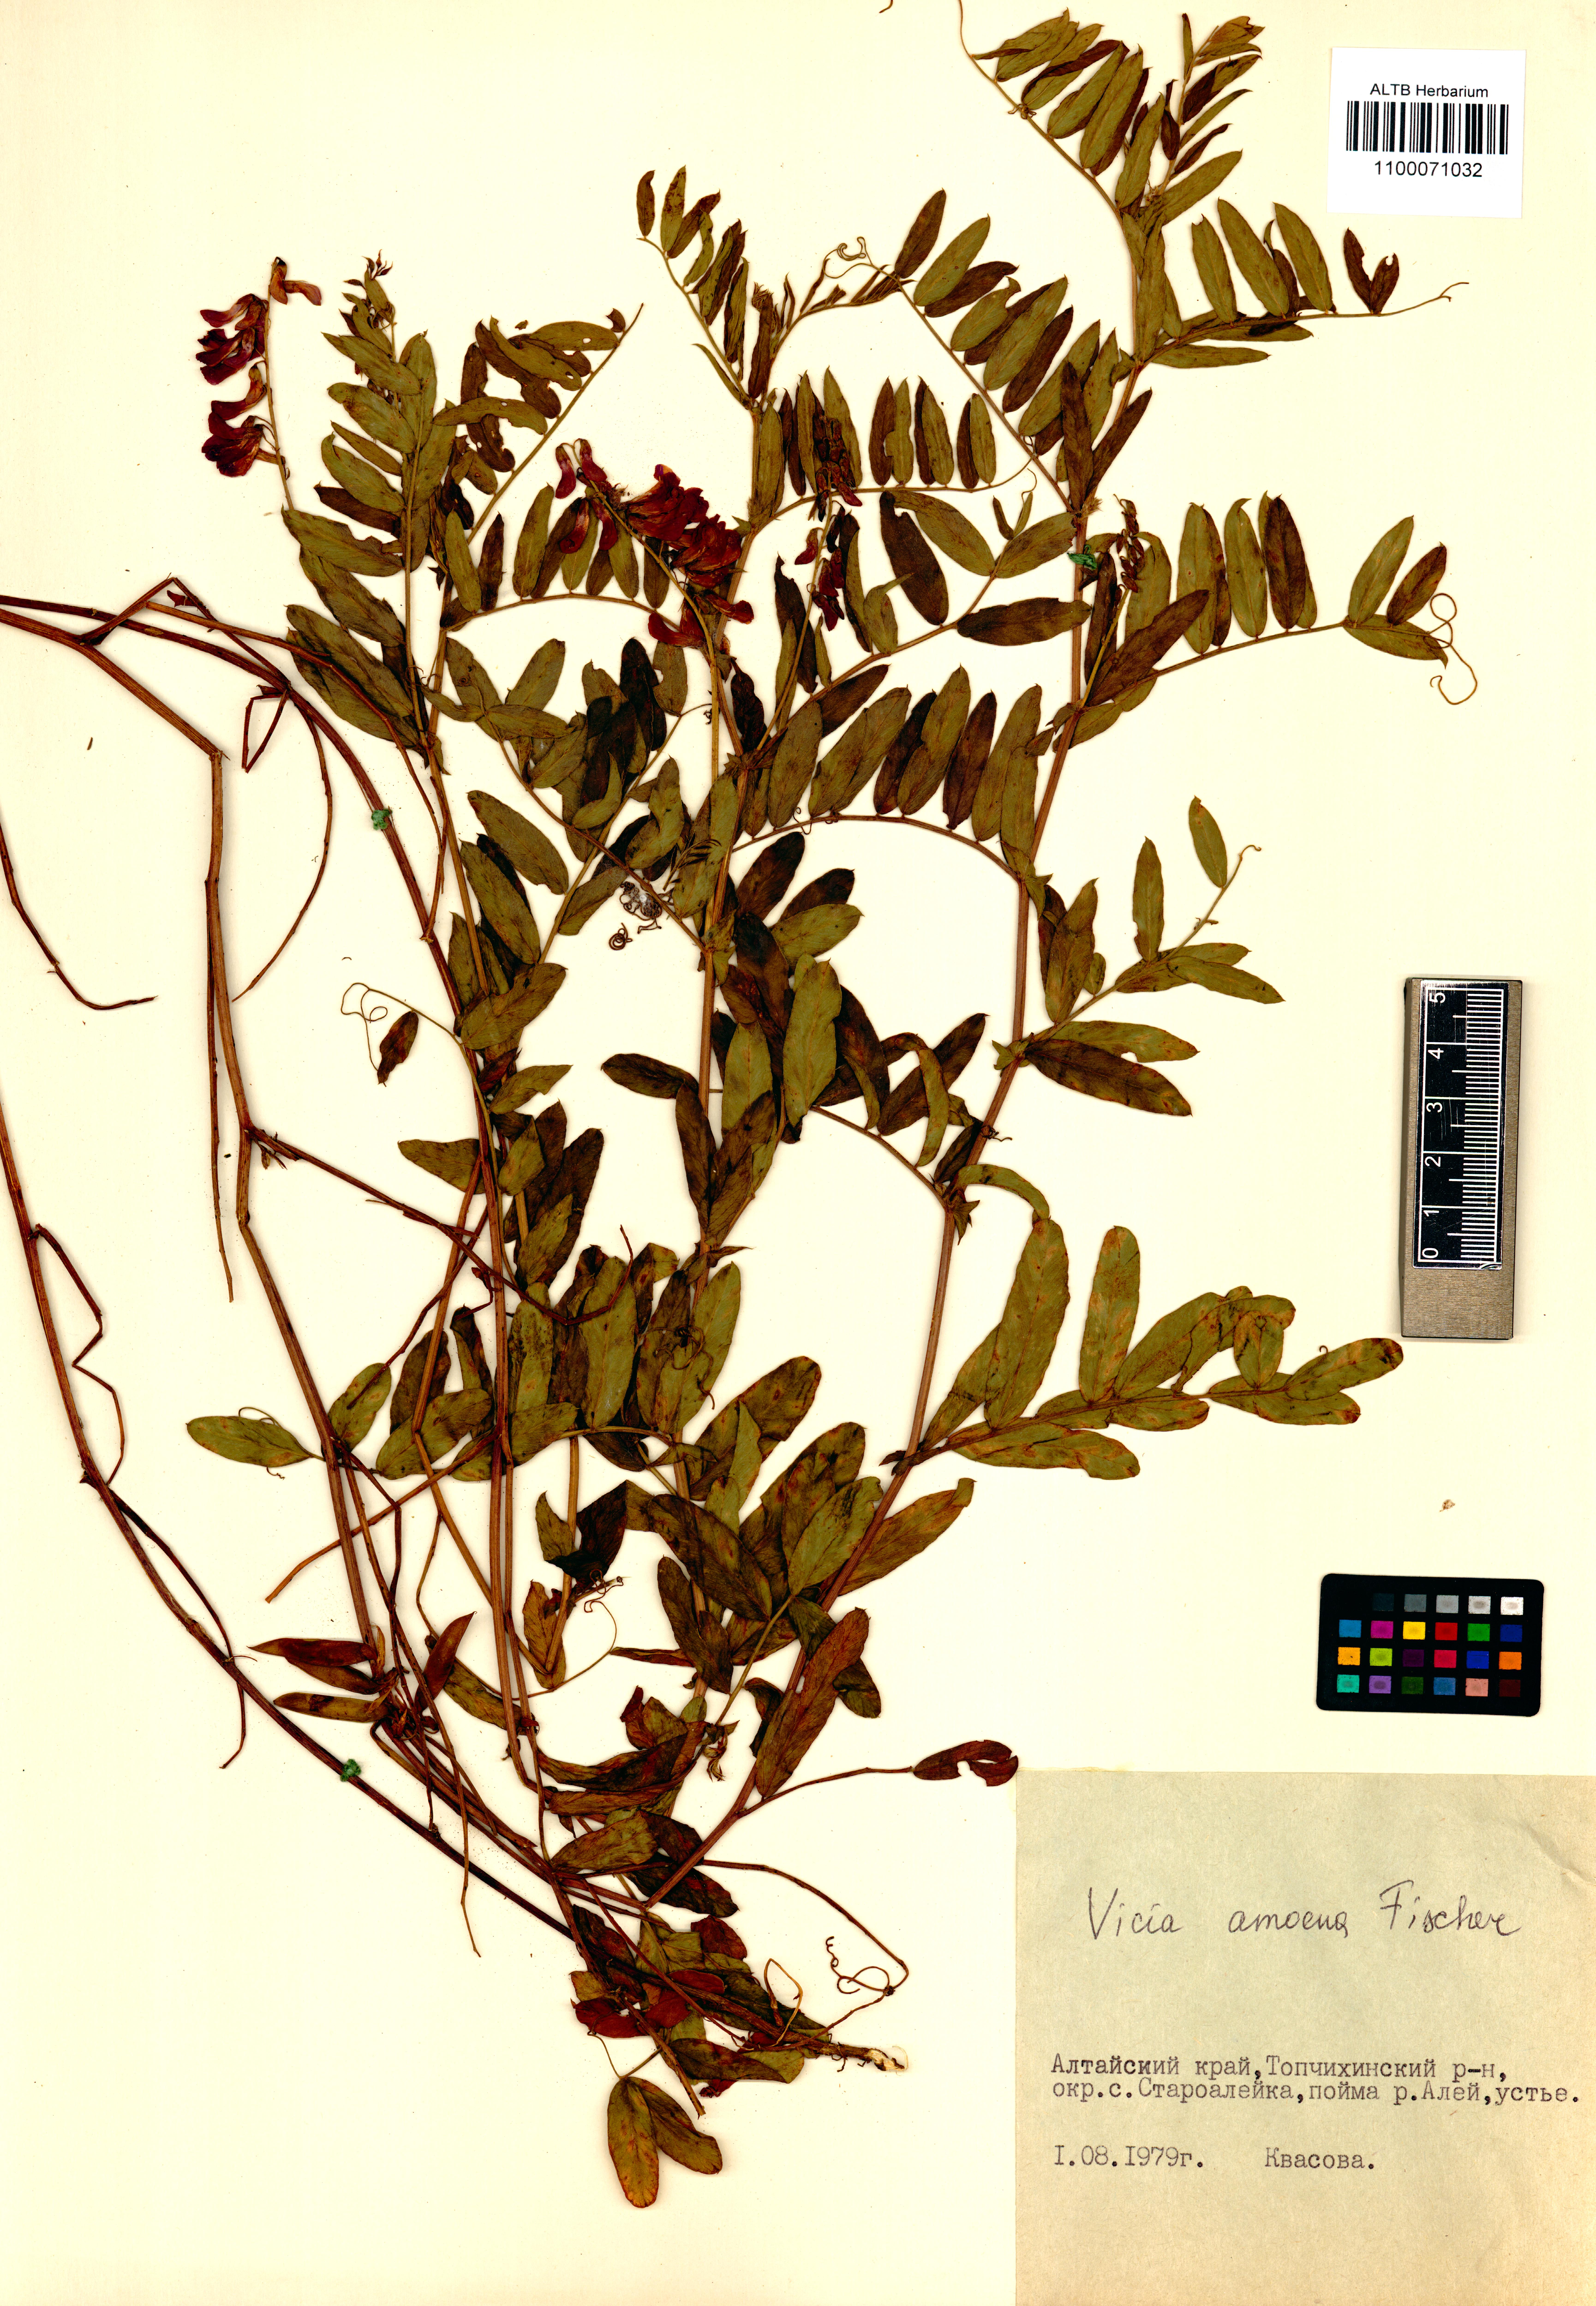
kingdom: Plantae
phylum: Tracheophyta
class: Magnoliopsida
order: Fabales
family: Fabaceae
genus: Vicia
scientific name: Vicia amoena
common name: Cheder ebs
